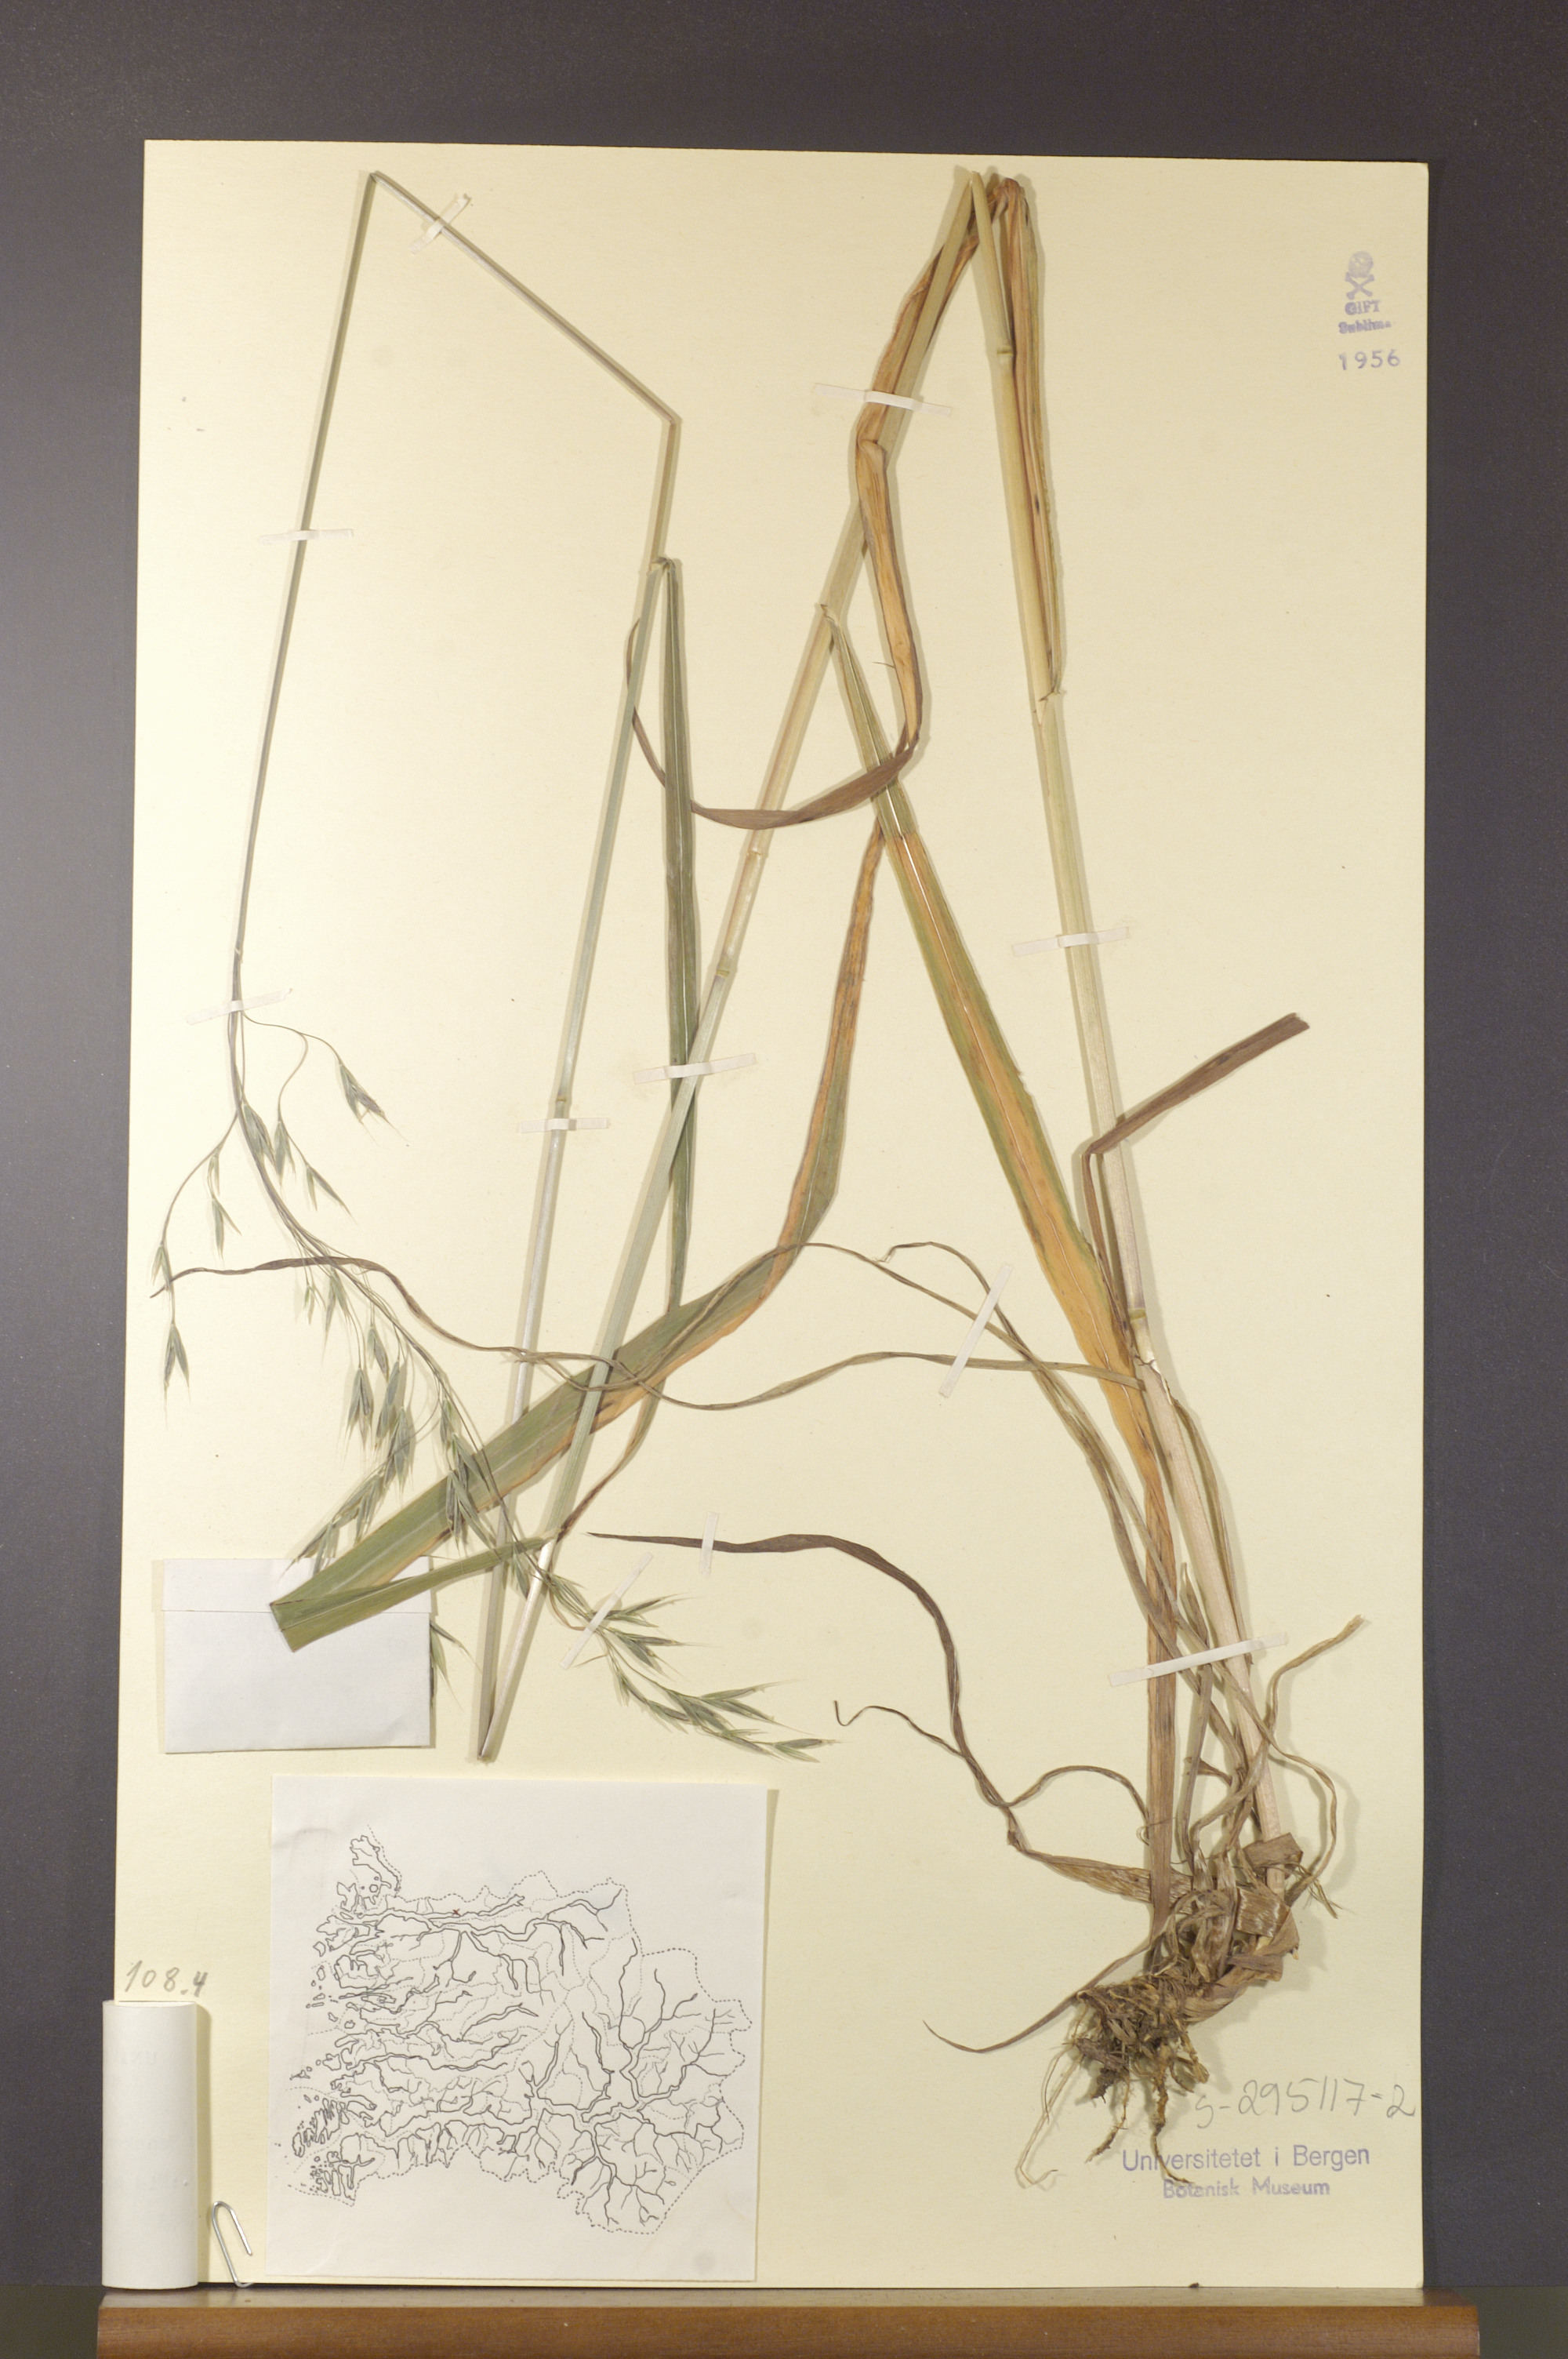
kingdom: Plantae
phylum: Tracheophyta
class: Liliopsida
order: Poales
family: Poaceae
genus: Bromus
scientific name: Bromus benekenii
